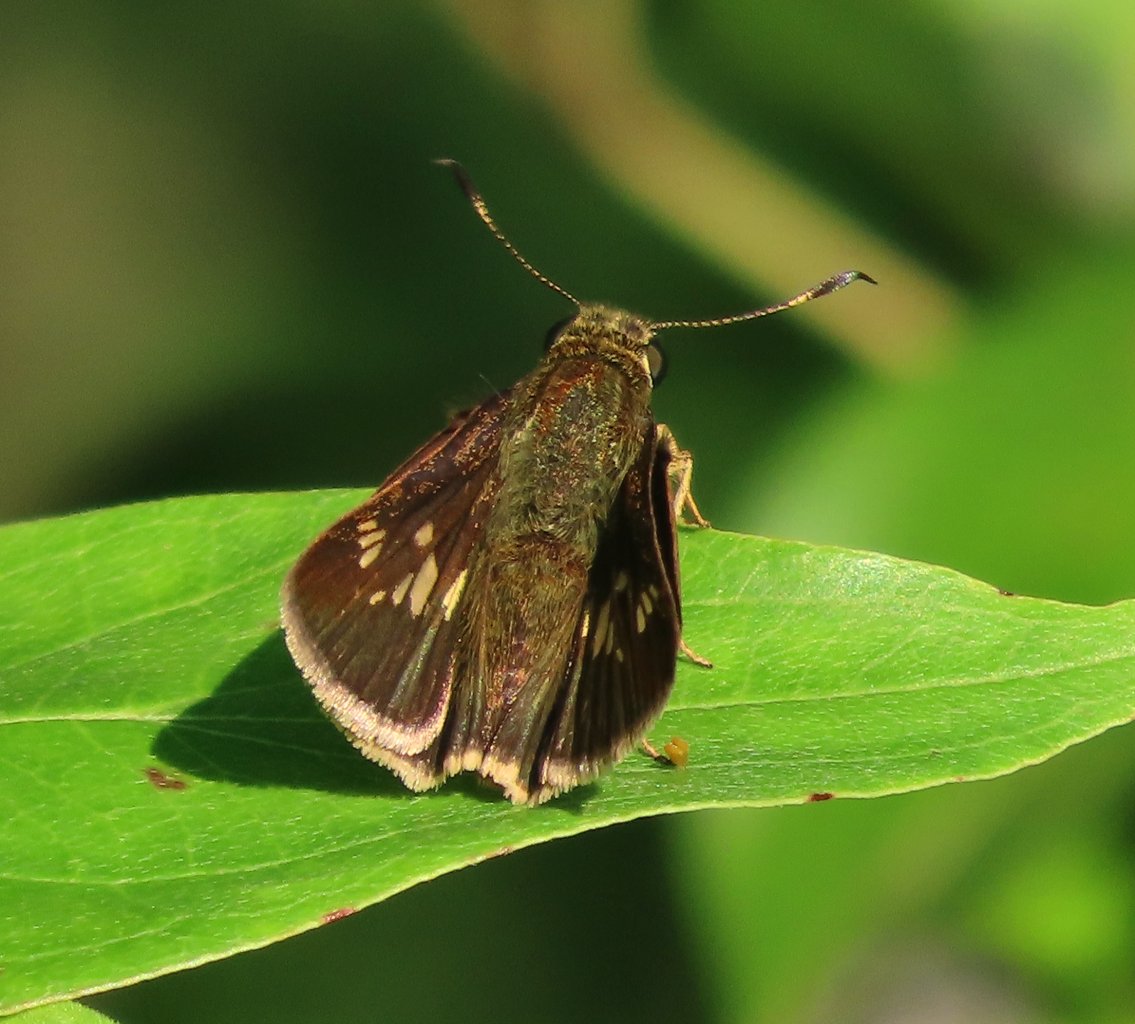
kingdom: Animalia
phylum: Arthropoda
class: Insecta
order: Lepidoptera
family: Hesperiidae
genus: Vernia
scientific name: Vernia verna
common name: Little Glassywing
